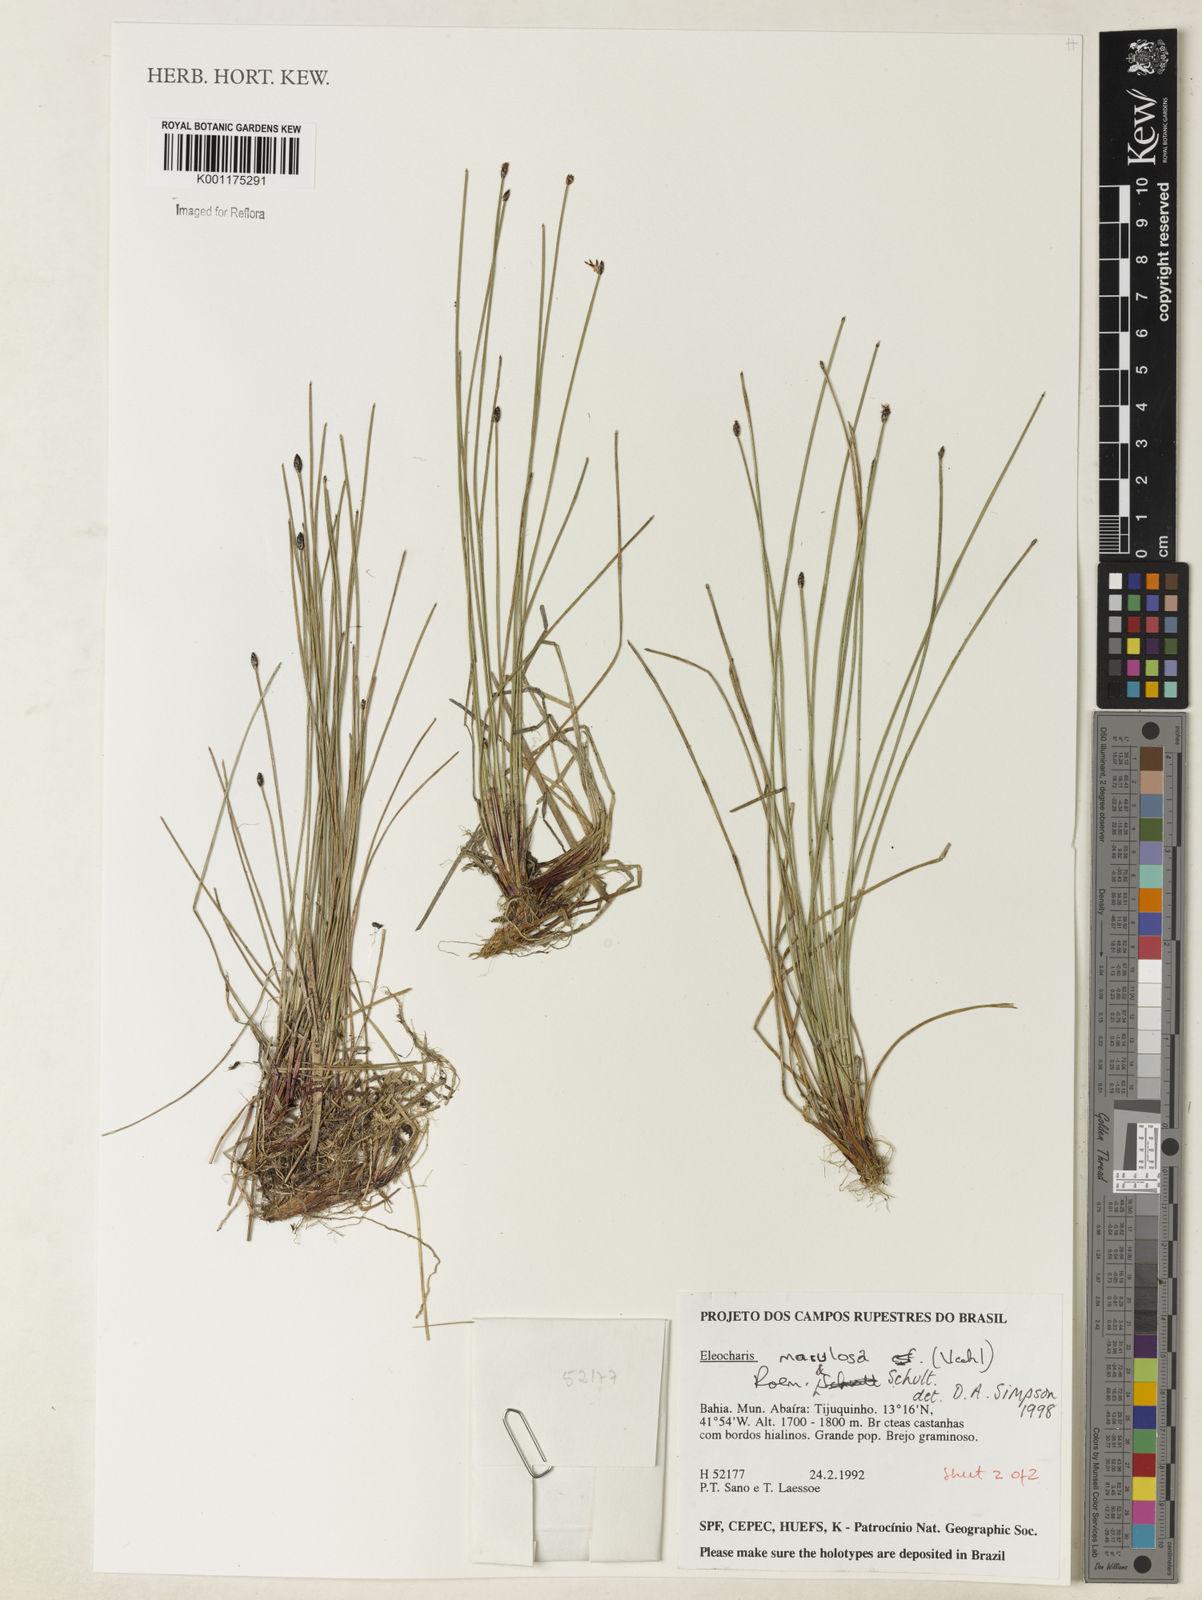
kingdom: Plantae
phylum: Tracheophyta
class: Liliopsida
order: Poales
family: Cyperaceae
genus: Eleocharis
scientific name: Eleocharis maculosa
